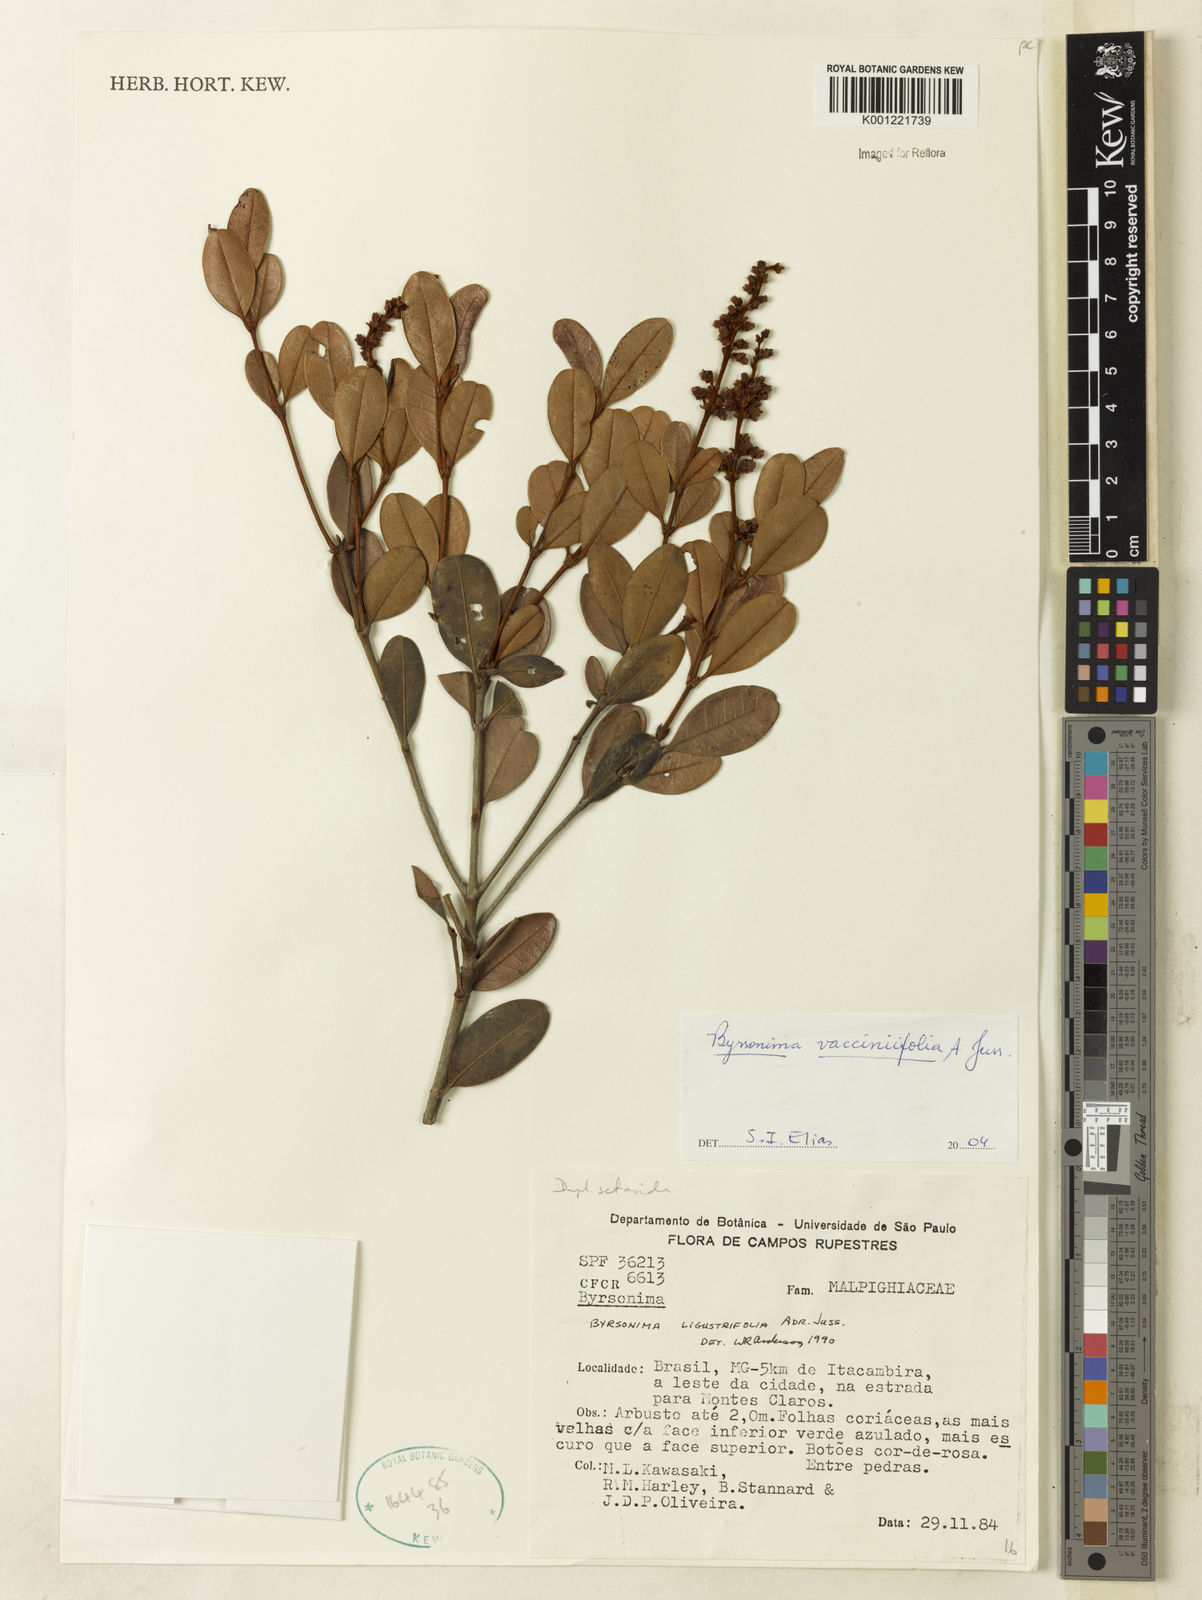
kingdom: Plantae
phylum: Tracheophyta
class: Magnoliopsida
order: Malpighiales
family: Malpighiaceae
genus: Byrsonima
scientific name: Byrsonima vacciniifolia
